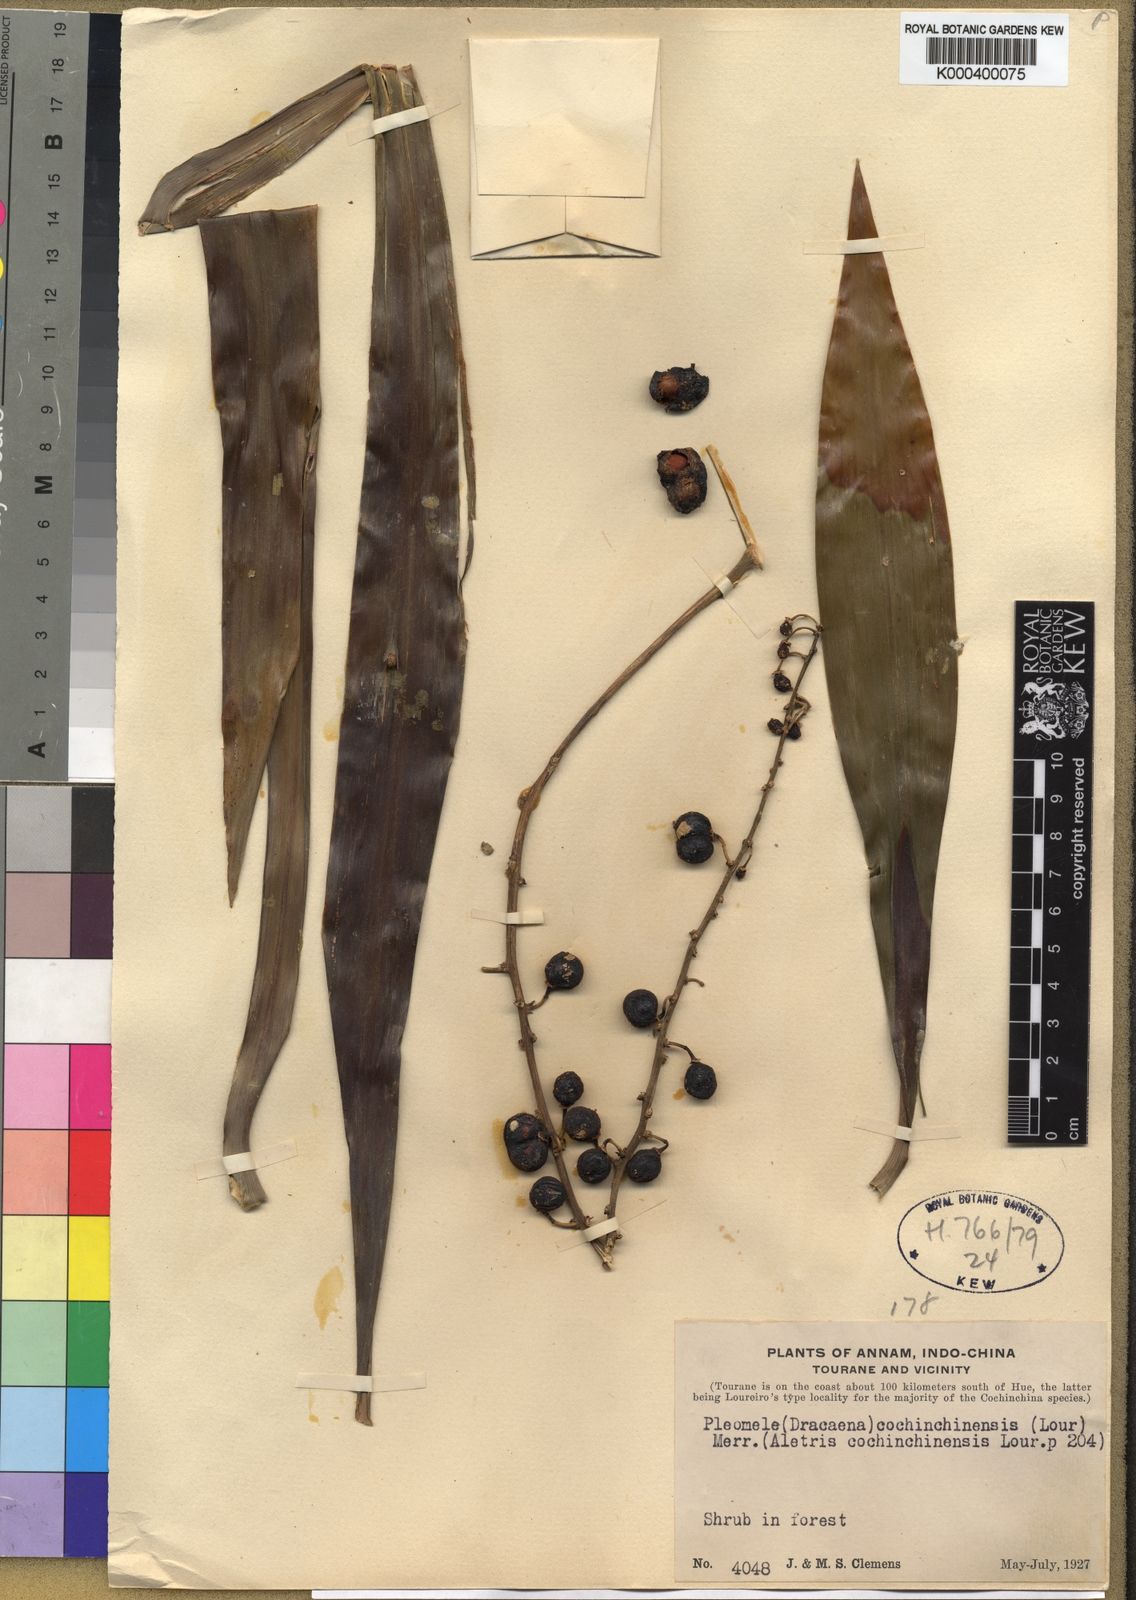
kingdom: Plantae
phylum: Tracheophyta
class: Liliopsida
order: Asparagales
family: Asparagaceae
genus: Dracaena
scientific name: Dracaena
